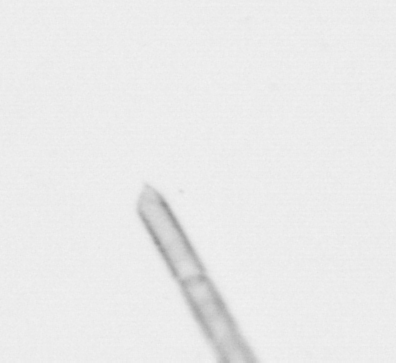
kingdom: Chromista
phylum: Ochrophyta
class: Bacillariophyceae
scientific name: Bacillariophyceae
